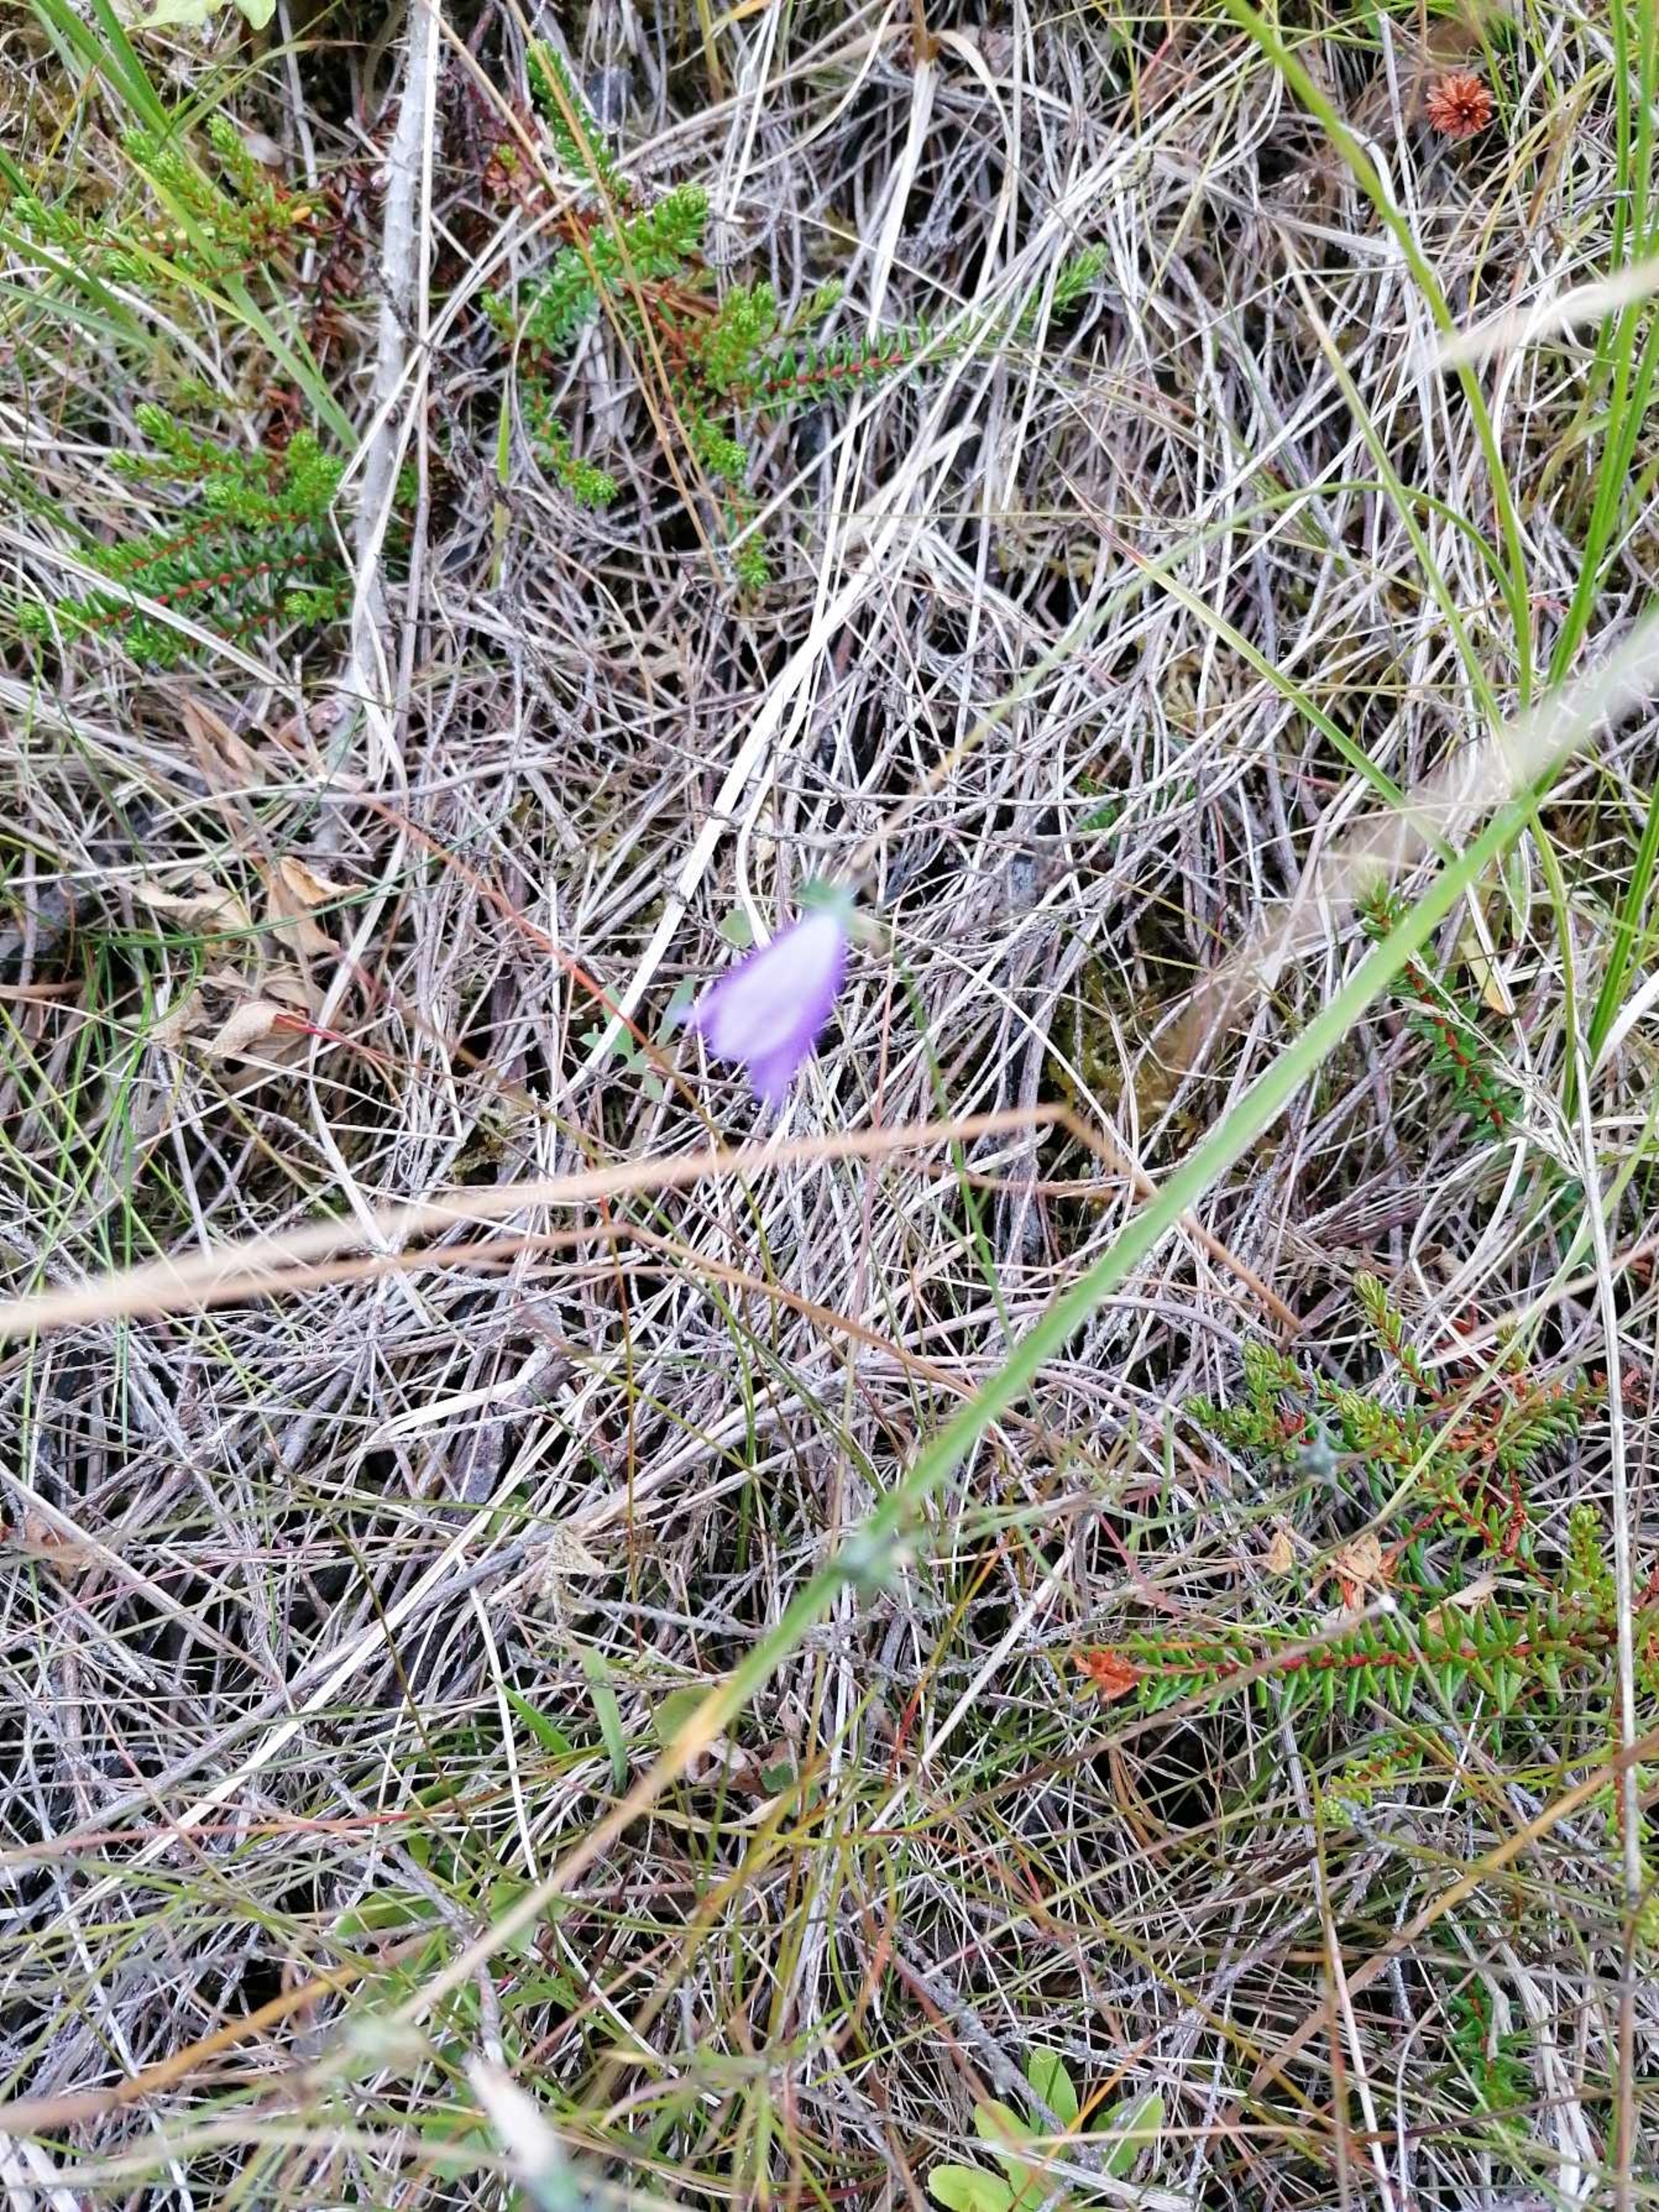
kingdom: Plantae
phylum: Tracheophyta
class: Magnoliopsida
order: Asterales
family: Campanulaceae
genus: Campanula
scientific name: Campanula rotundifolia
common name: Liden klokke
